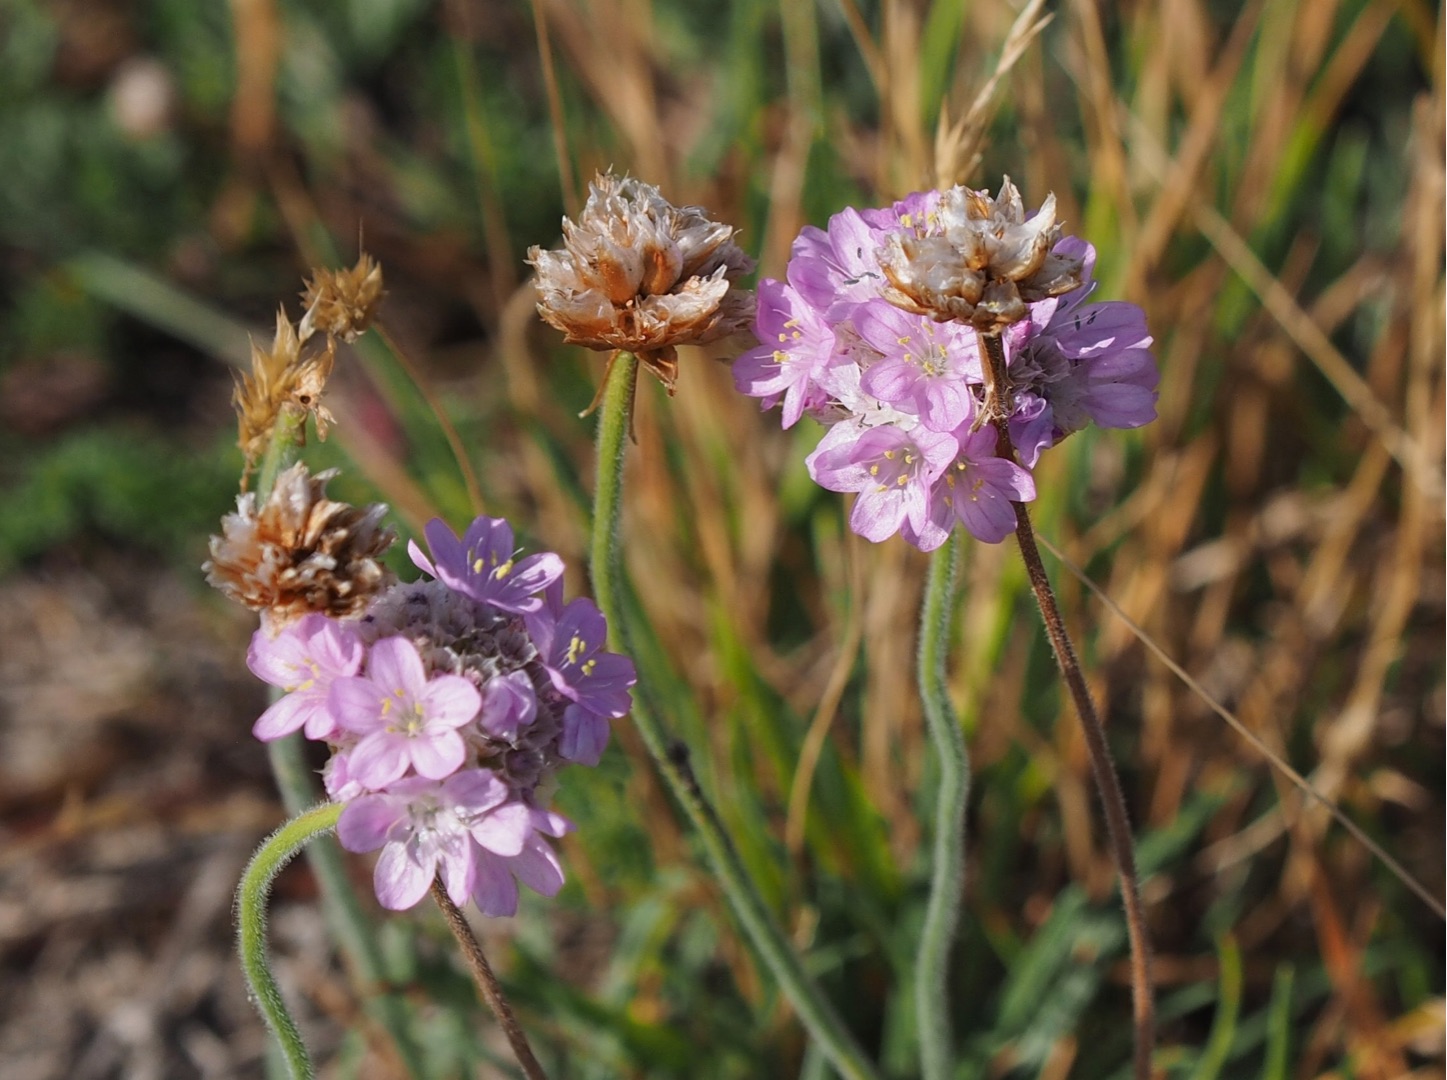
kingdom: Plantae
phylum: Tracheophyta
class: Magnoliopsida
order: Caryophyllales
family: Plumbaginaceae
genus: Armeria
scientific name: Armeria maritima
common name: Engelskgræs
